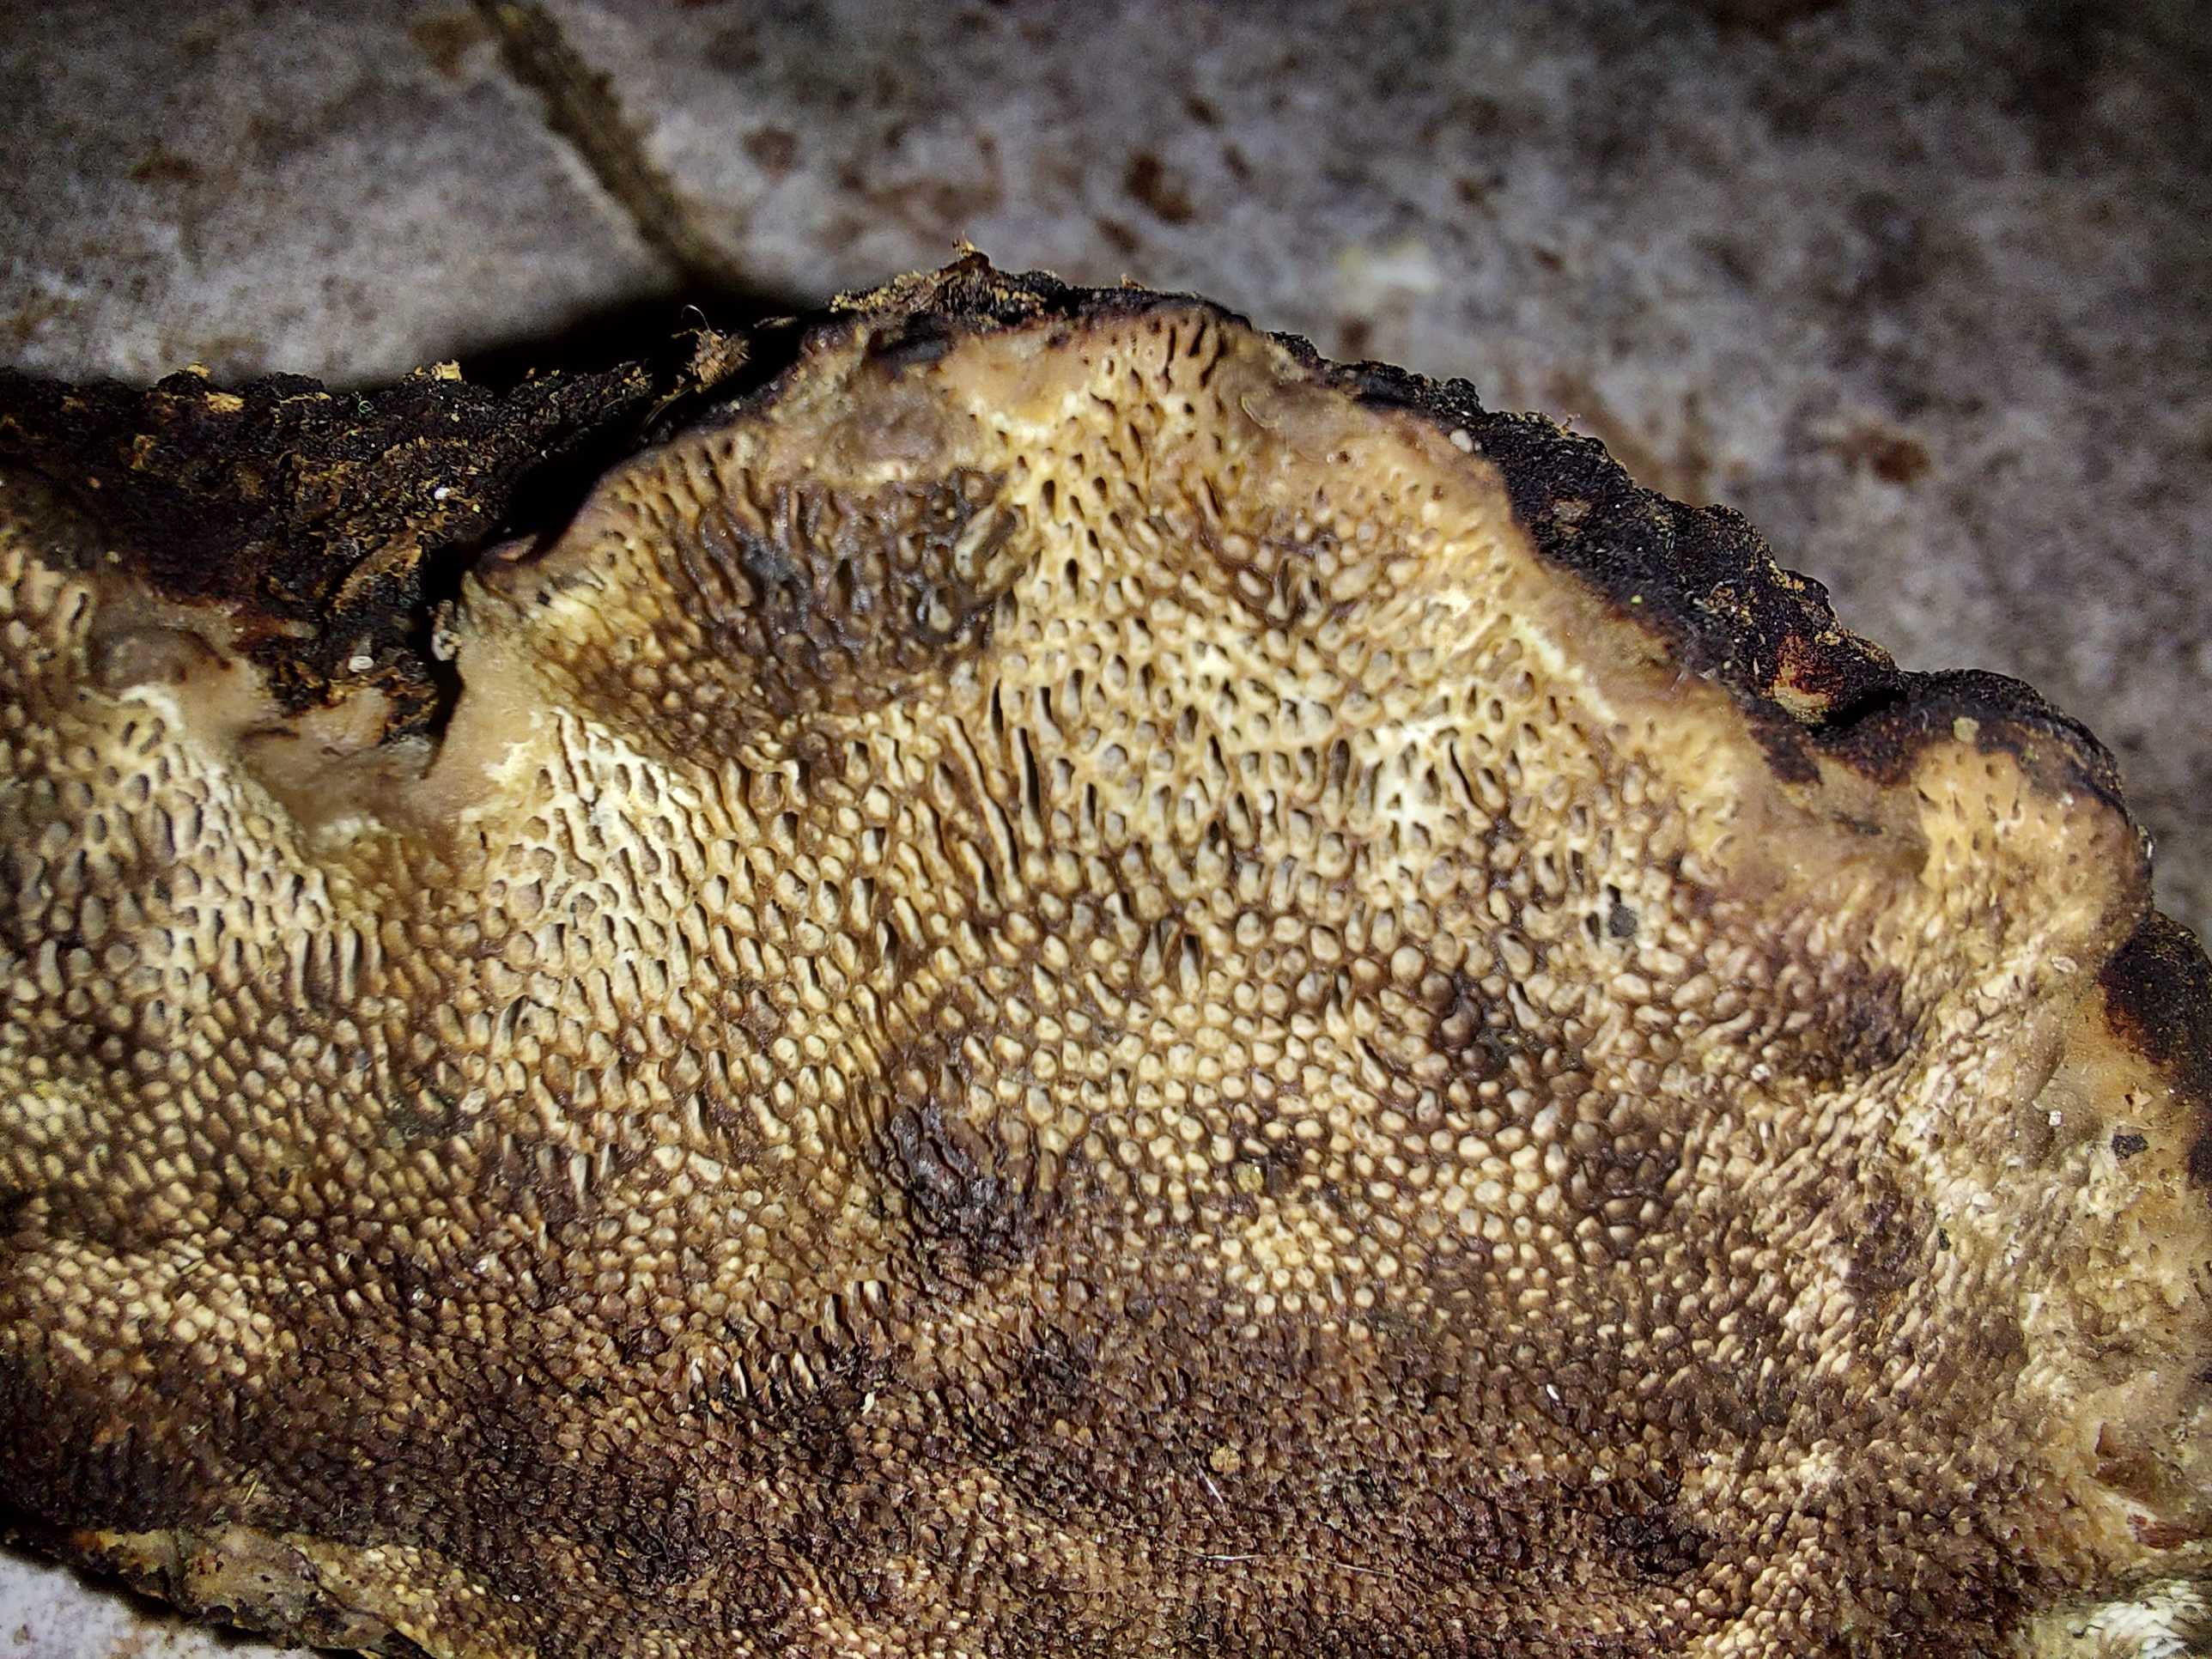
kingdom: Fungi
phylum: Basidiomycota
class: Agaricomycetes
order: Polyporales
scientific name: Polyporales
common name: poresvampordenen
